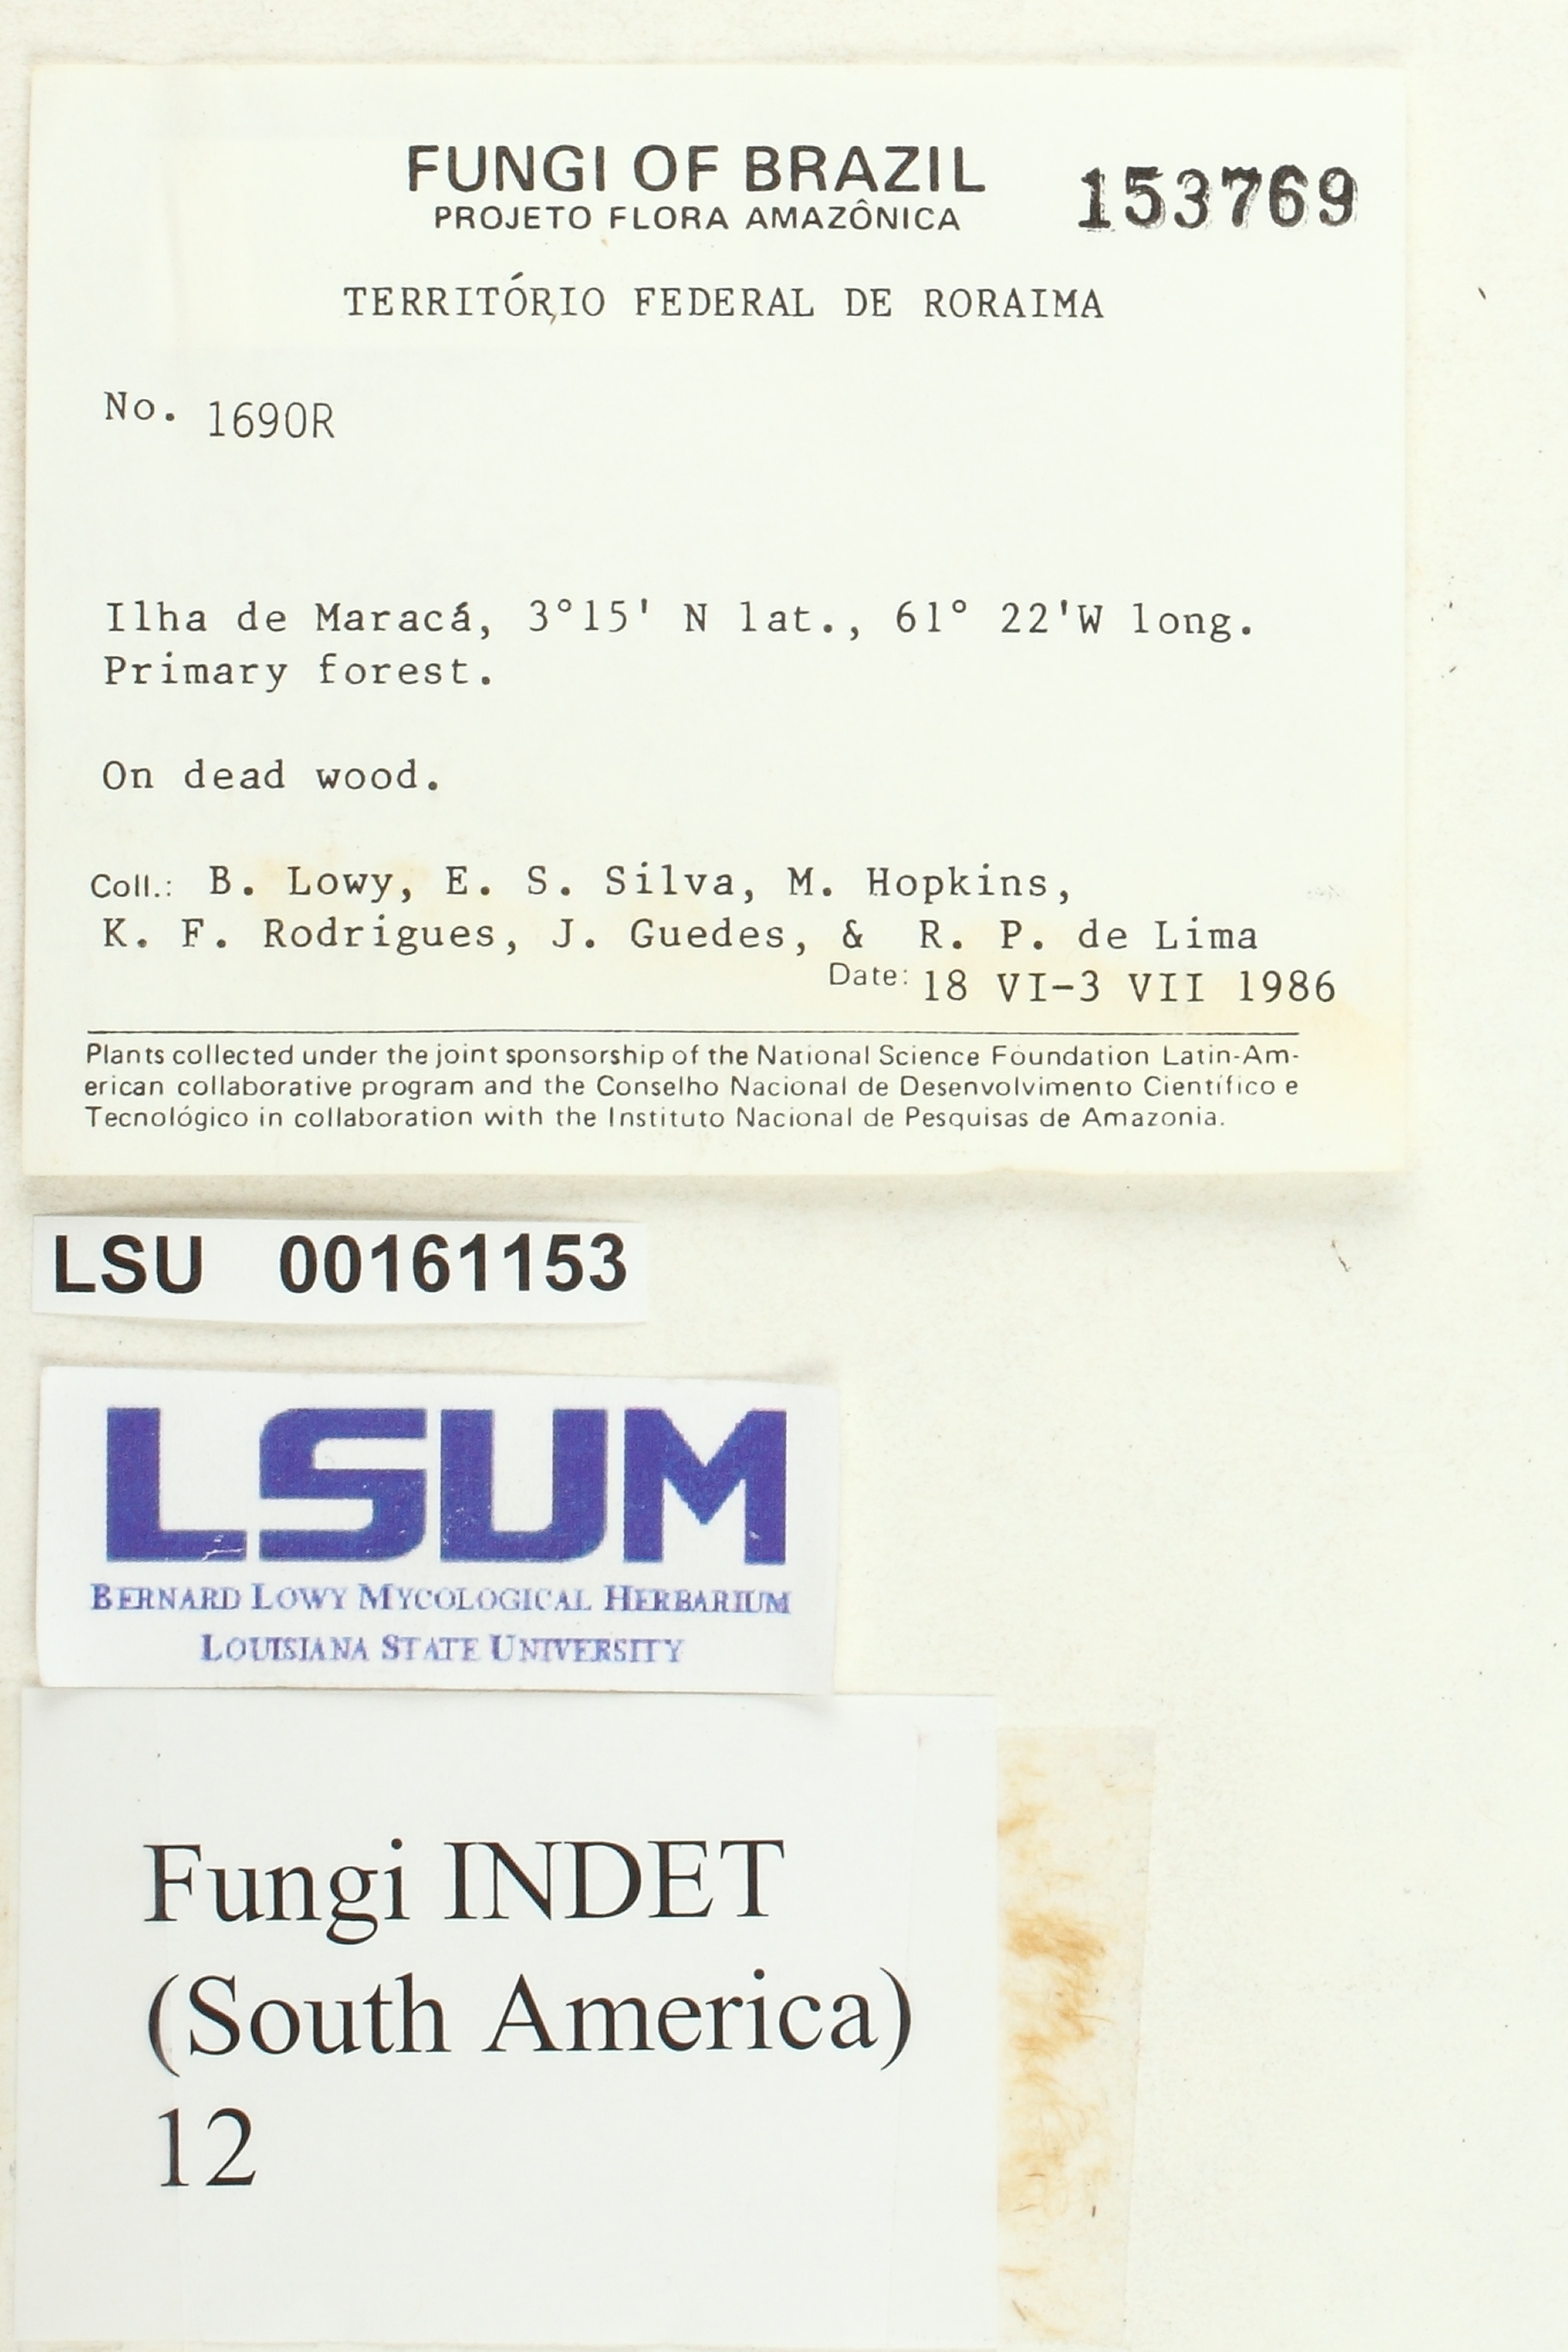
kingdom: Fungi
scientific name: Fungi
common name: Fungi
